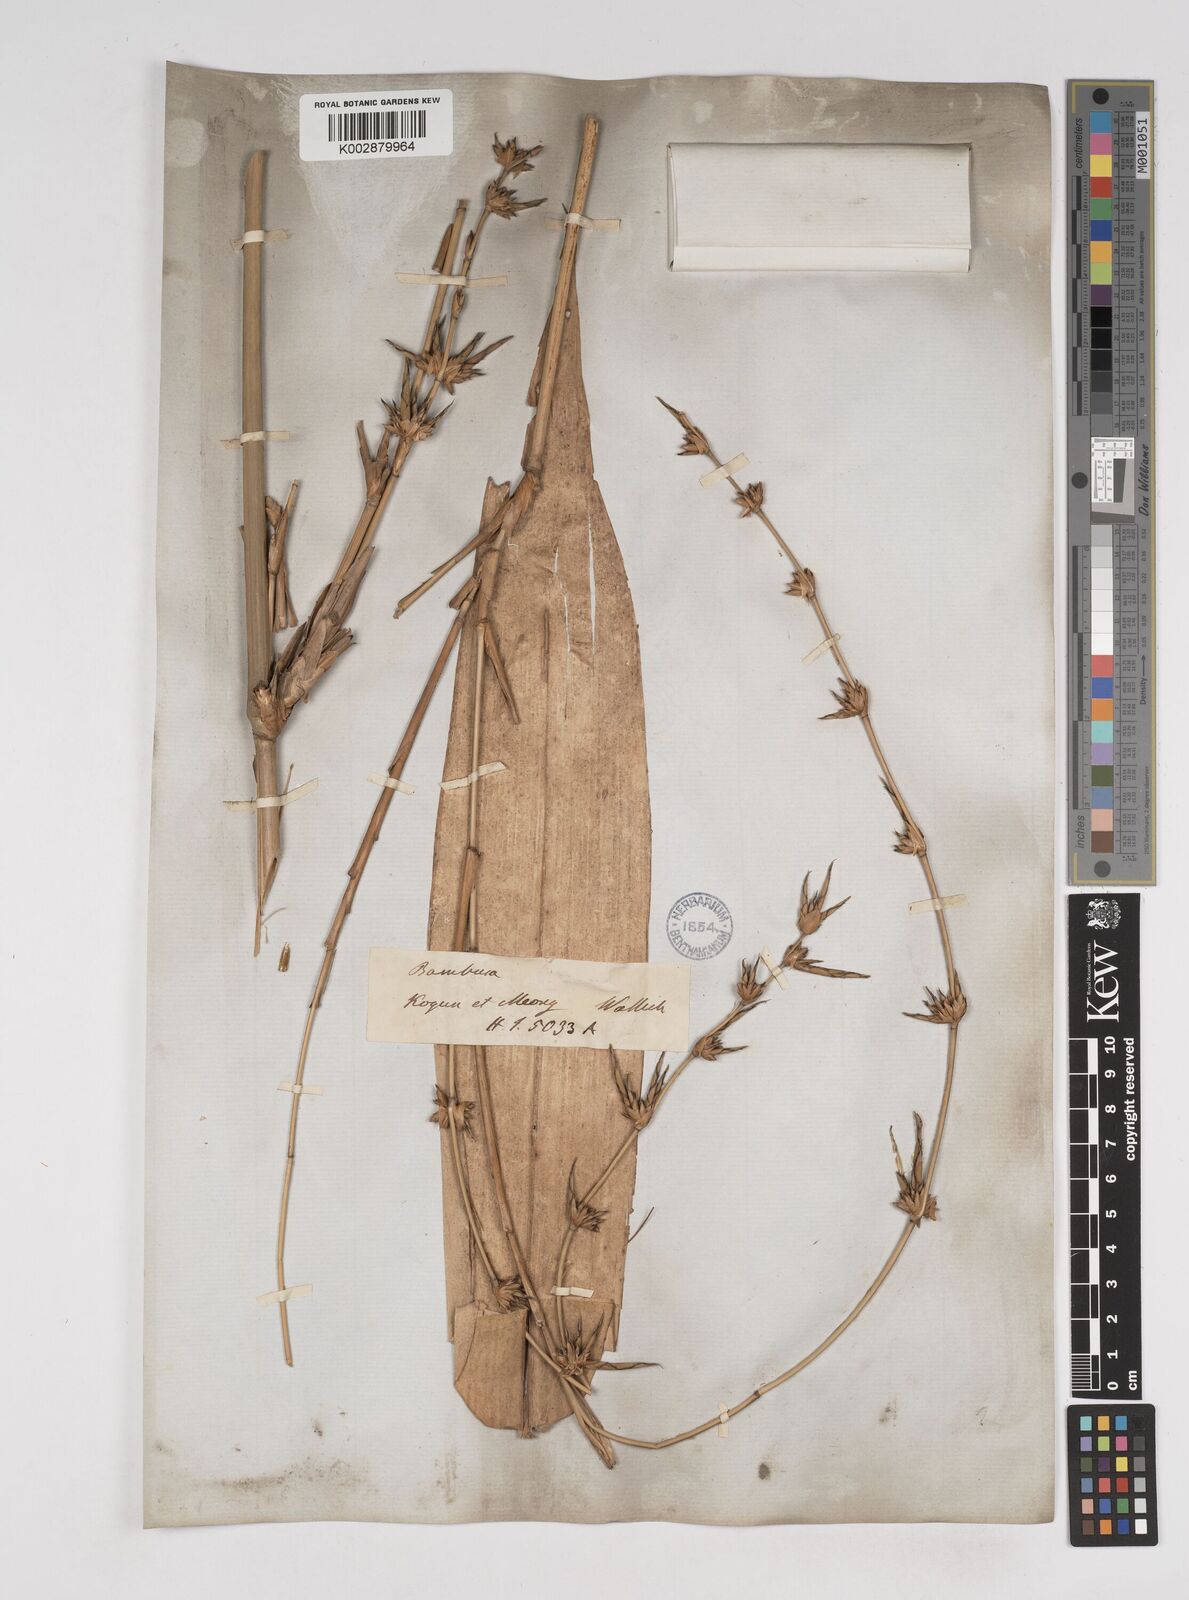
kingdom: Plantae
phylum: Tracheophyta
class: Liliopsida
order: Poales
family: Poaceae
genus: Gigantochloa
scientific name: Gigantochloa nigrociliata
